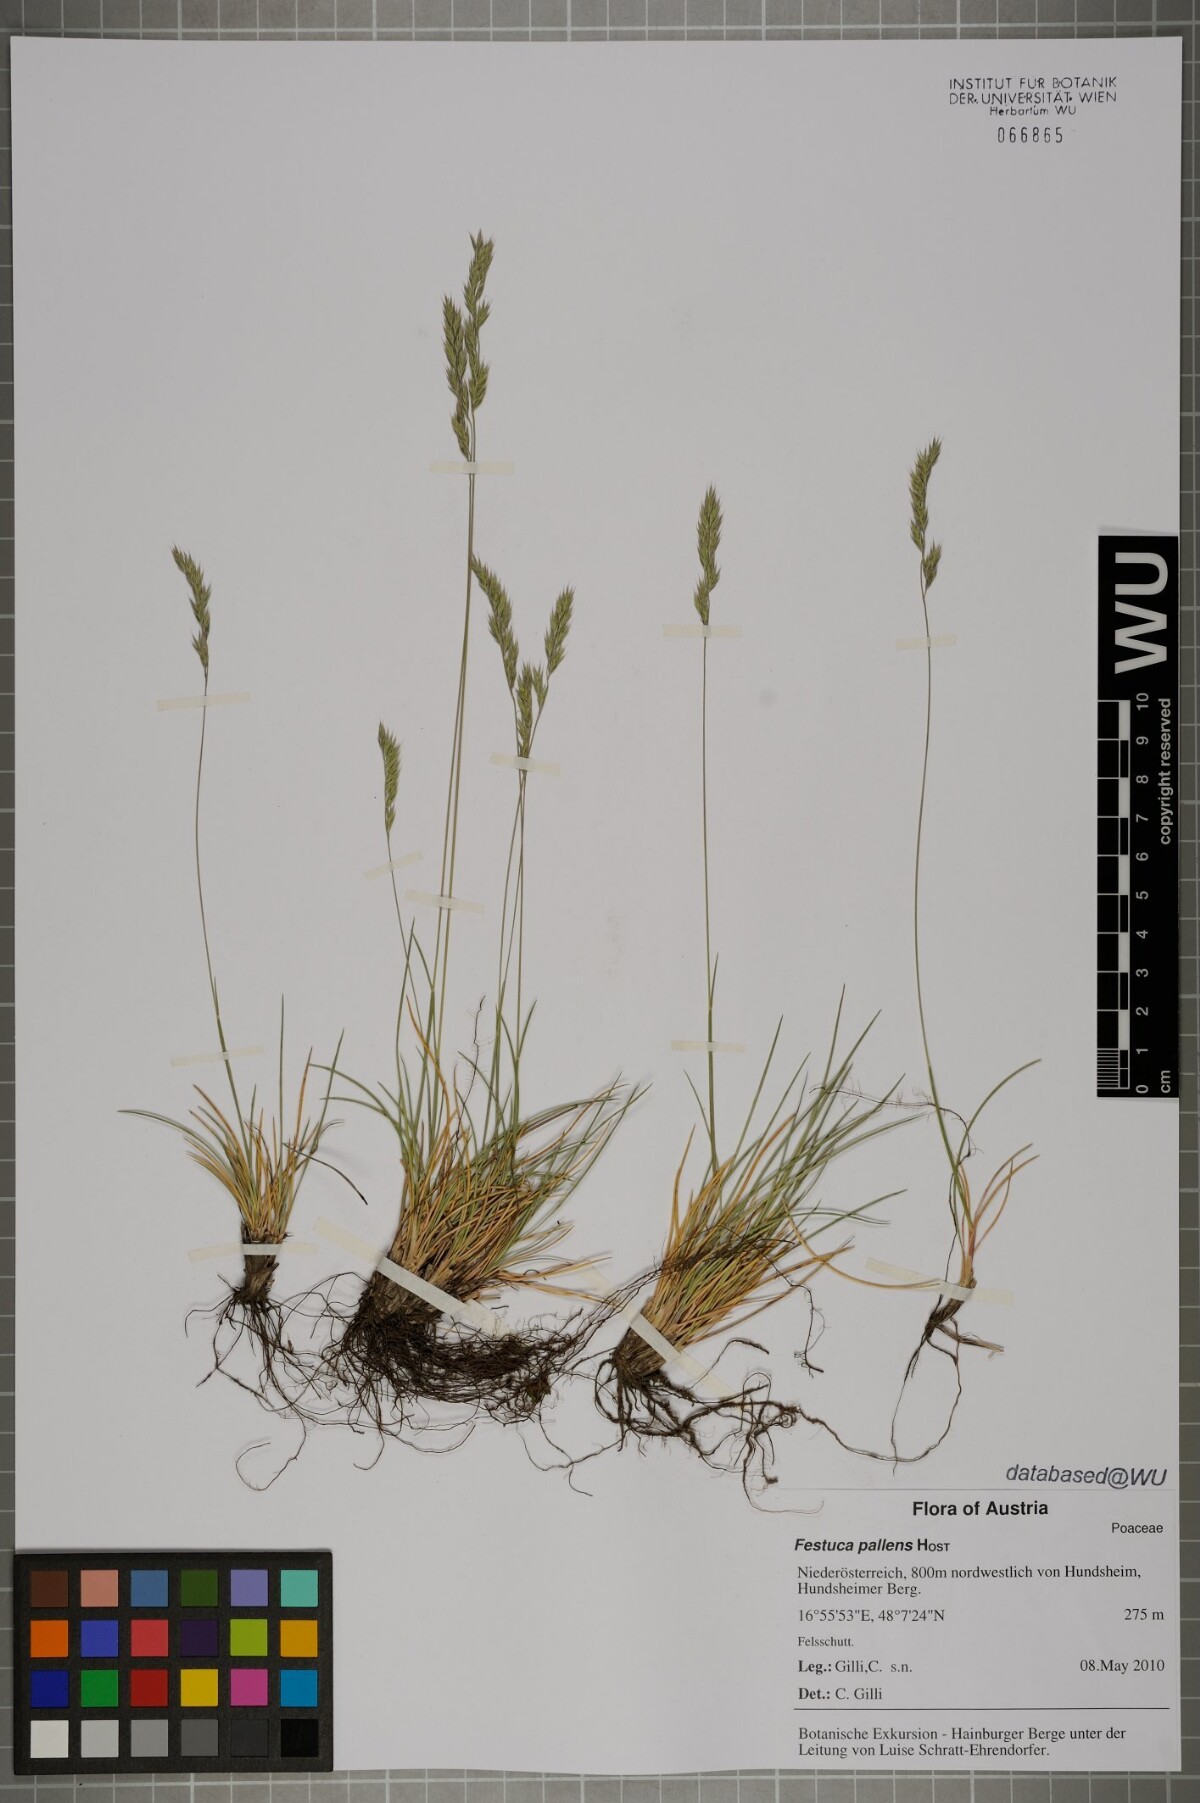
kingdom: Plantae
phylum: Tracheophyta
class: Liliopsida
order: Poales
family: Poaceae
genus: Festuca
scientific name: Festuca pallens
